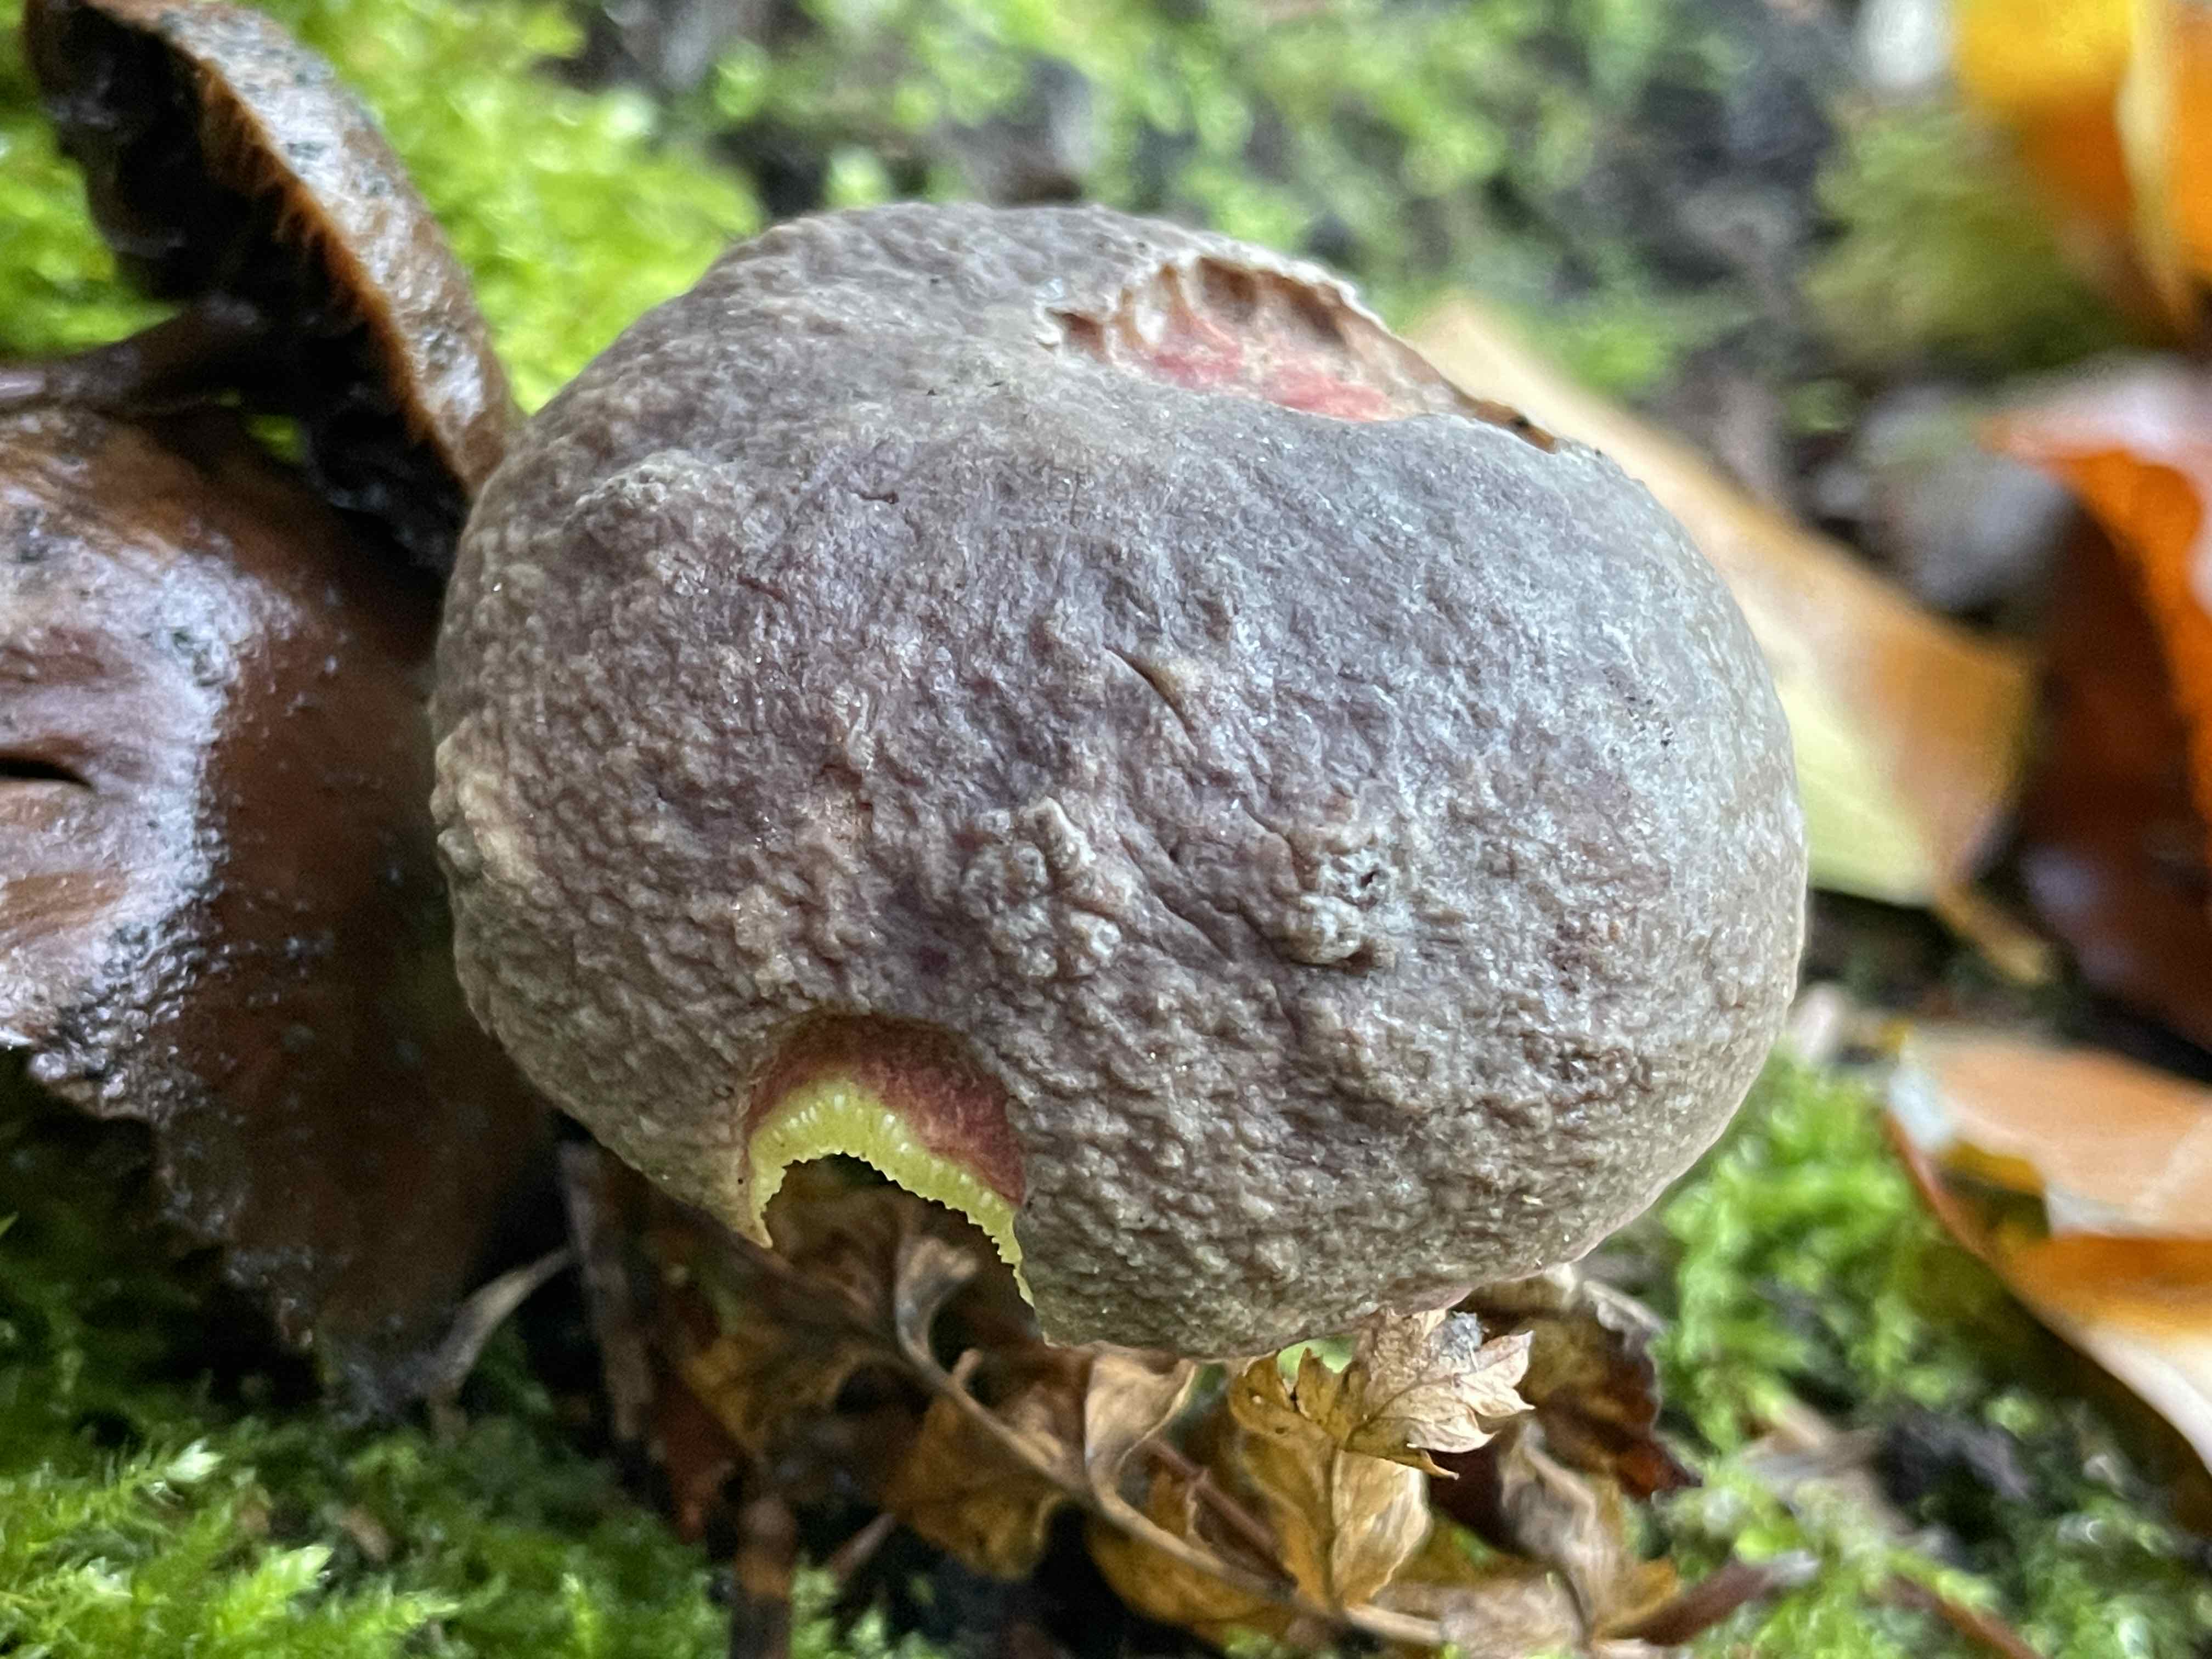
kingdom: Fungi
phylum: Basidiomycota
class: Agaricomycetes
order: Boletales
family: Boletaceae
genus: Xerocomellus
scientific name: Xerocomellus pruinatus
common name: dugget rørhat
